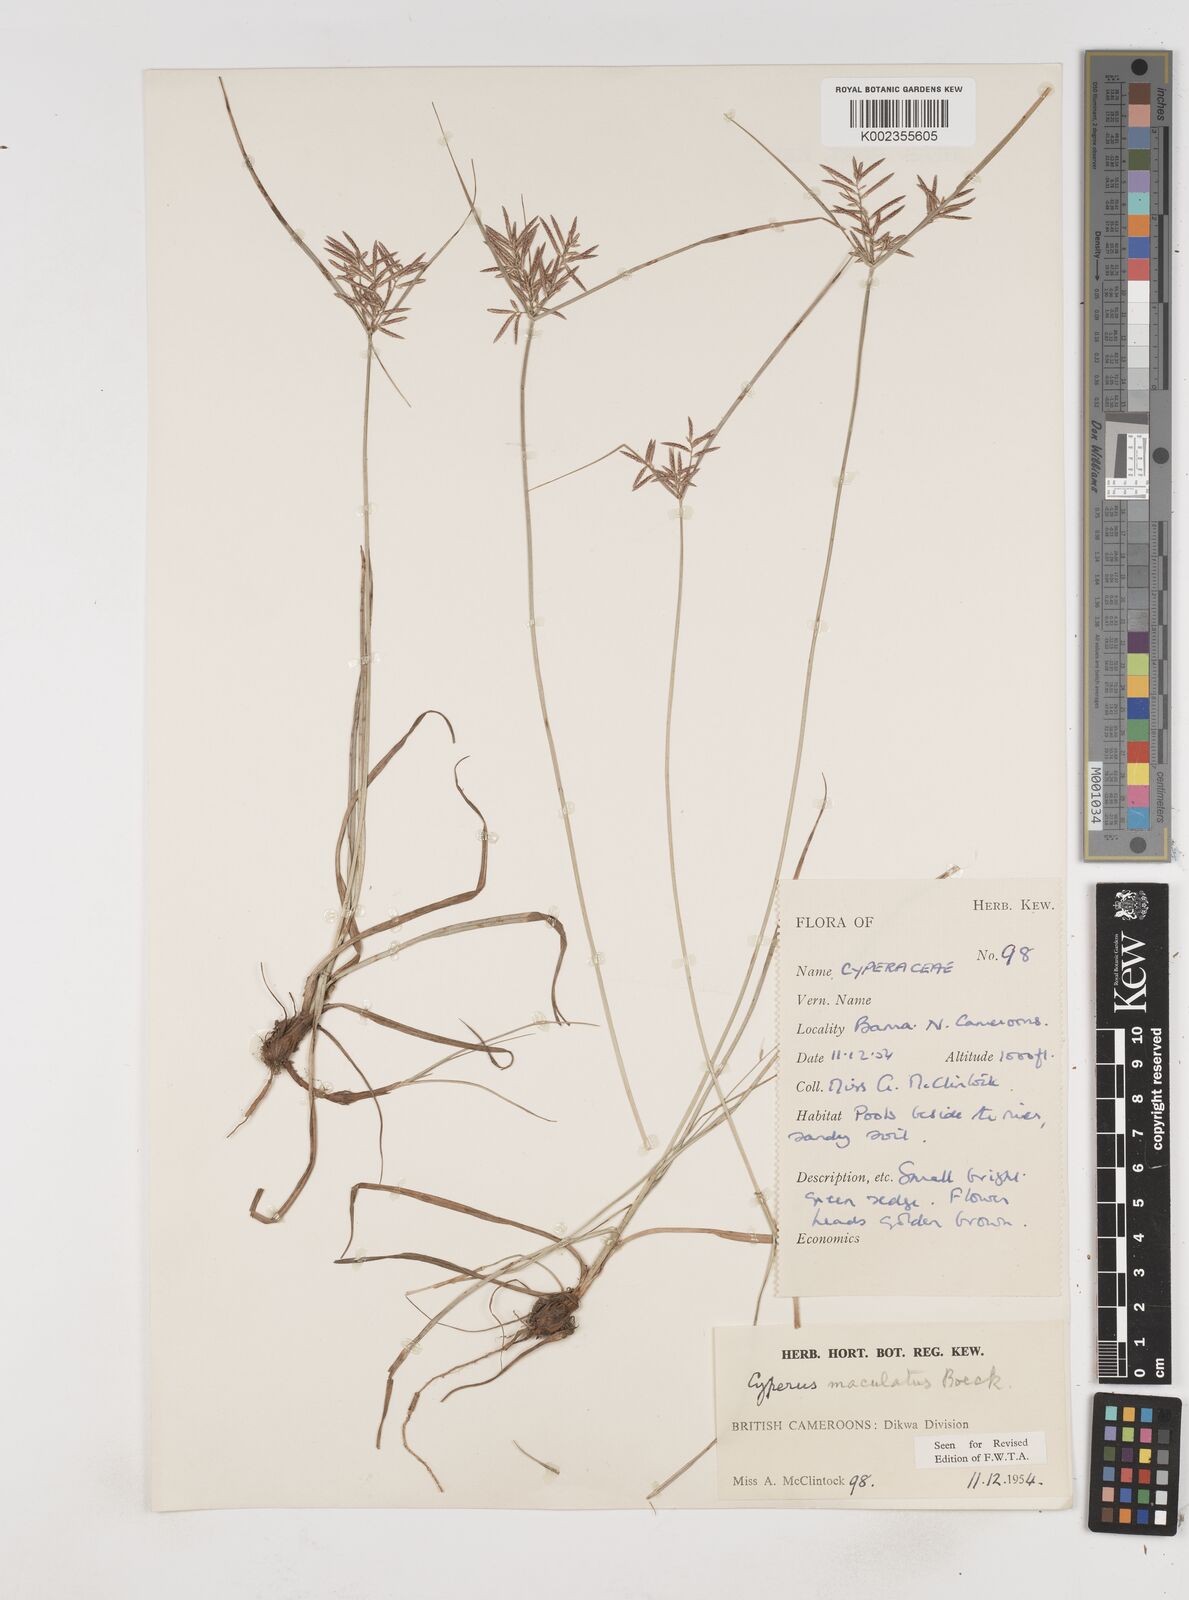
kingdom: Plantae
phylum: Tracheophyta
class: Liliopsida
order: Poales
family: Cyperaceae
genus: Cyperus
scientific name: Cyperus maculatus
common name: Maculated sedge
